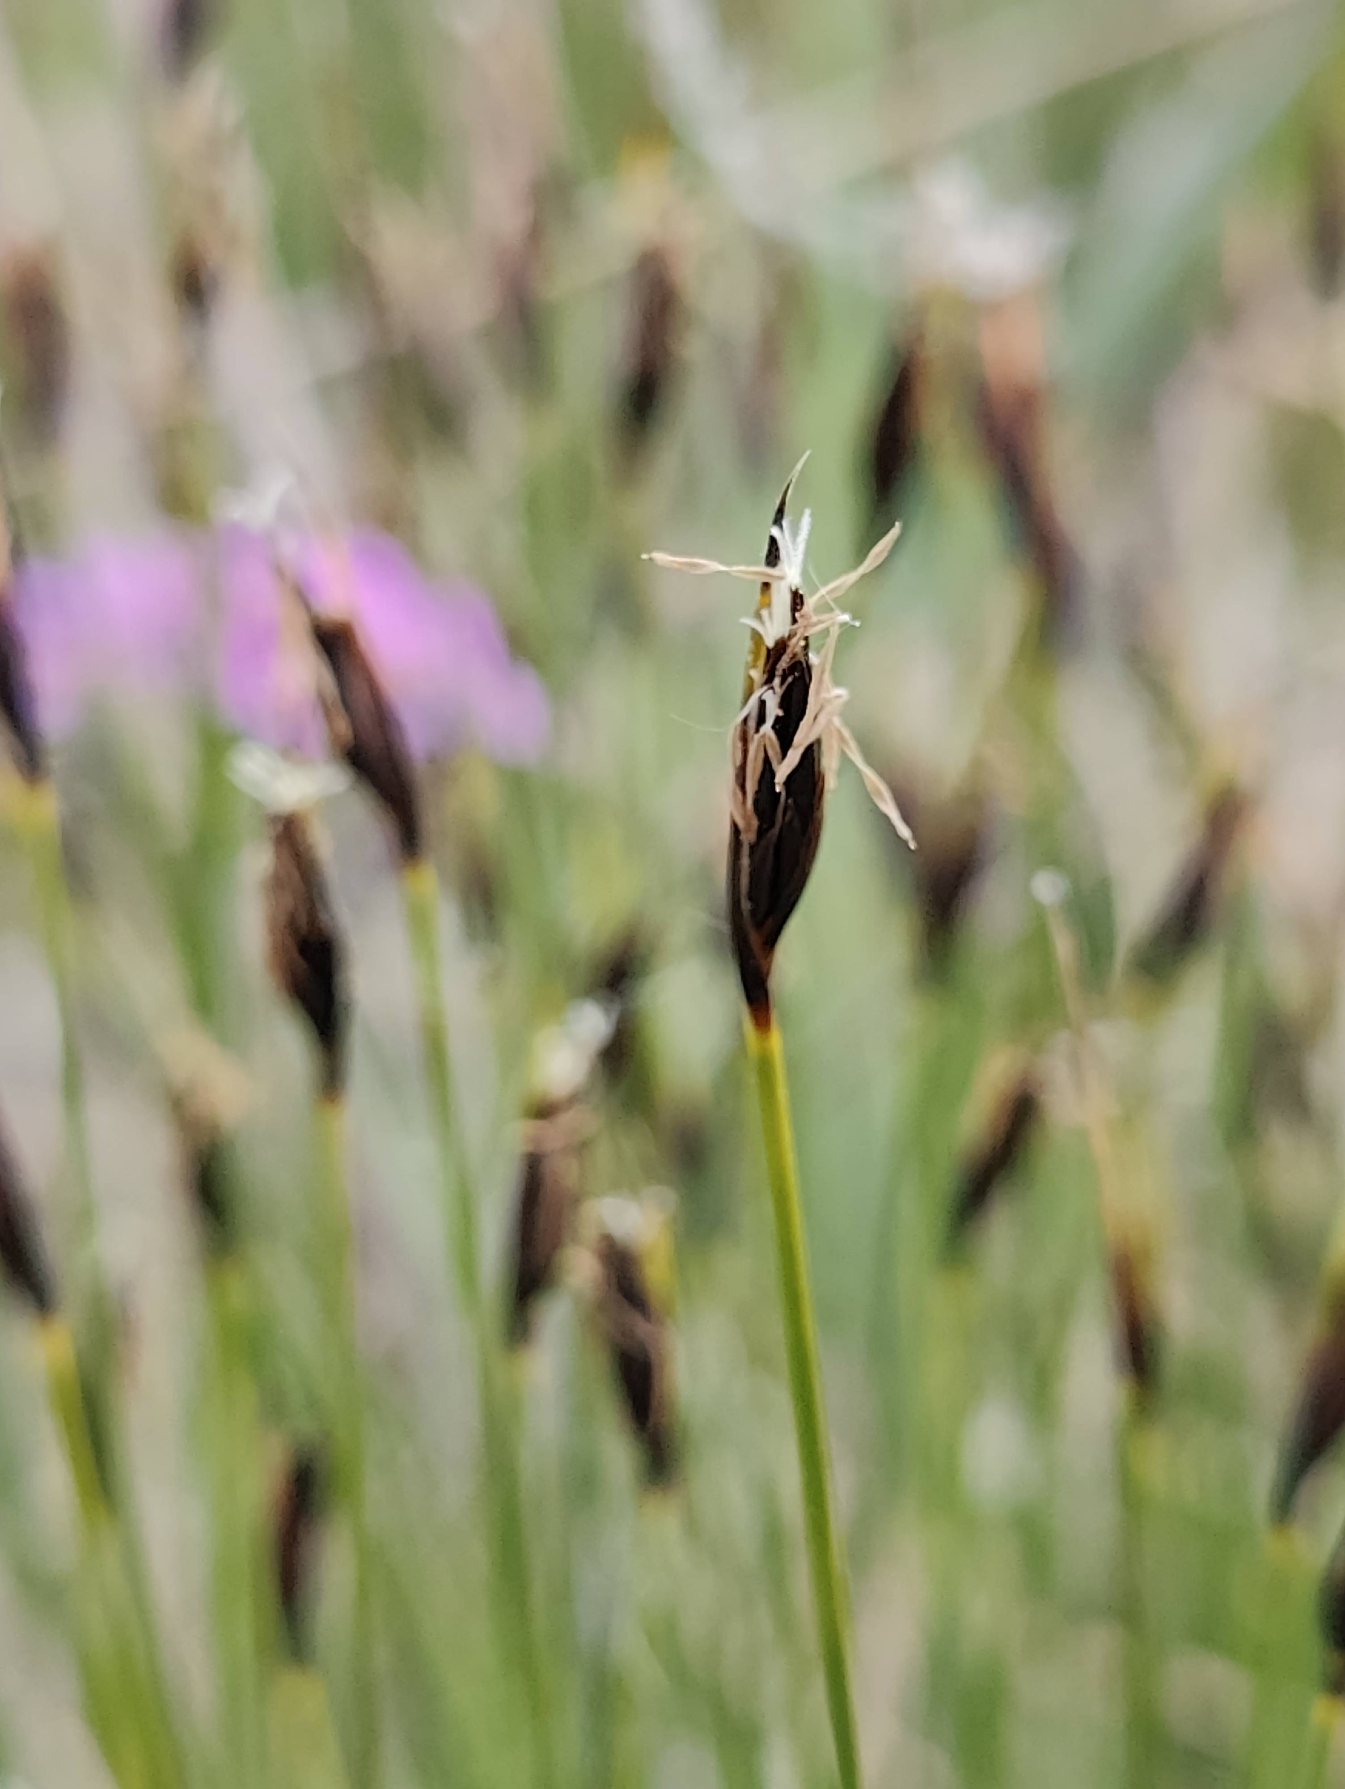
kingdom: Plantae
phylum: Tracheophyta
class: Liliopsida
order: Poales
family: Cyperaceae
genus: Schoenus
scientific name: Schoenus ferrugineus
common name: Rust-skæne
